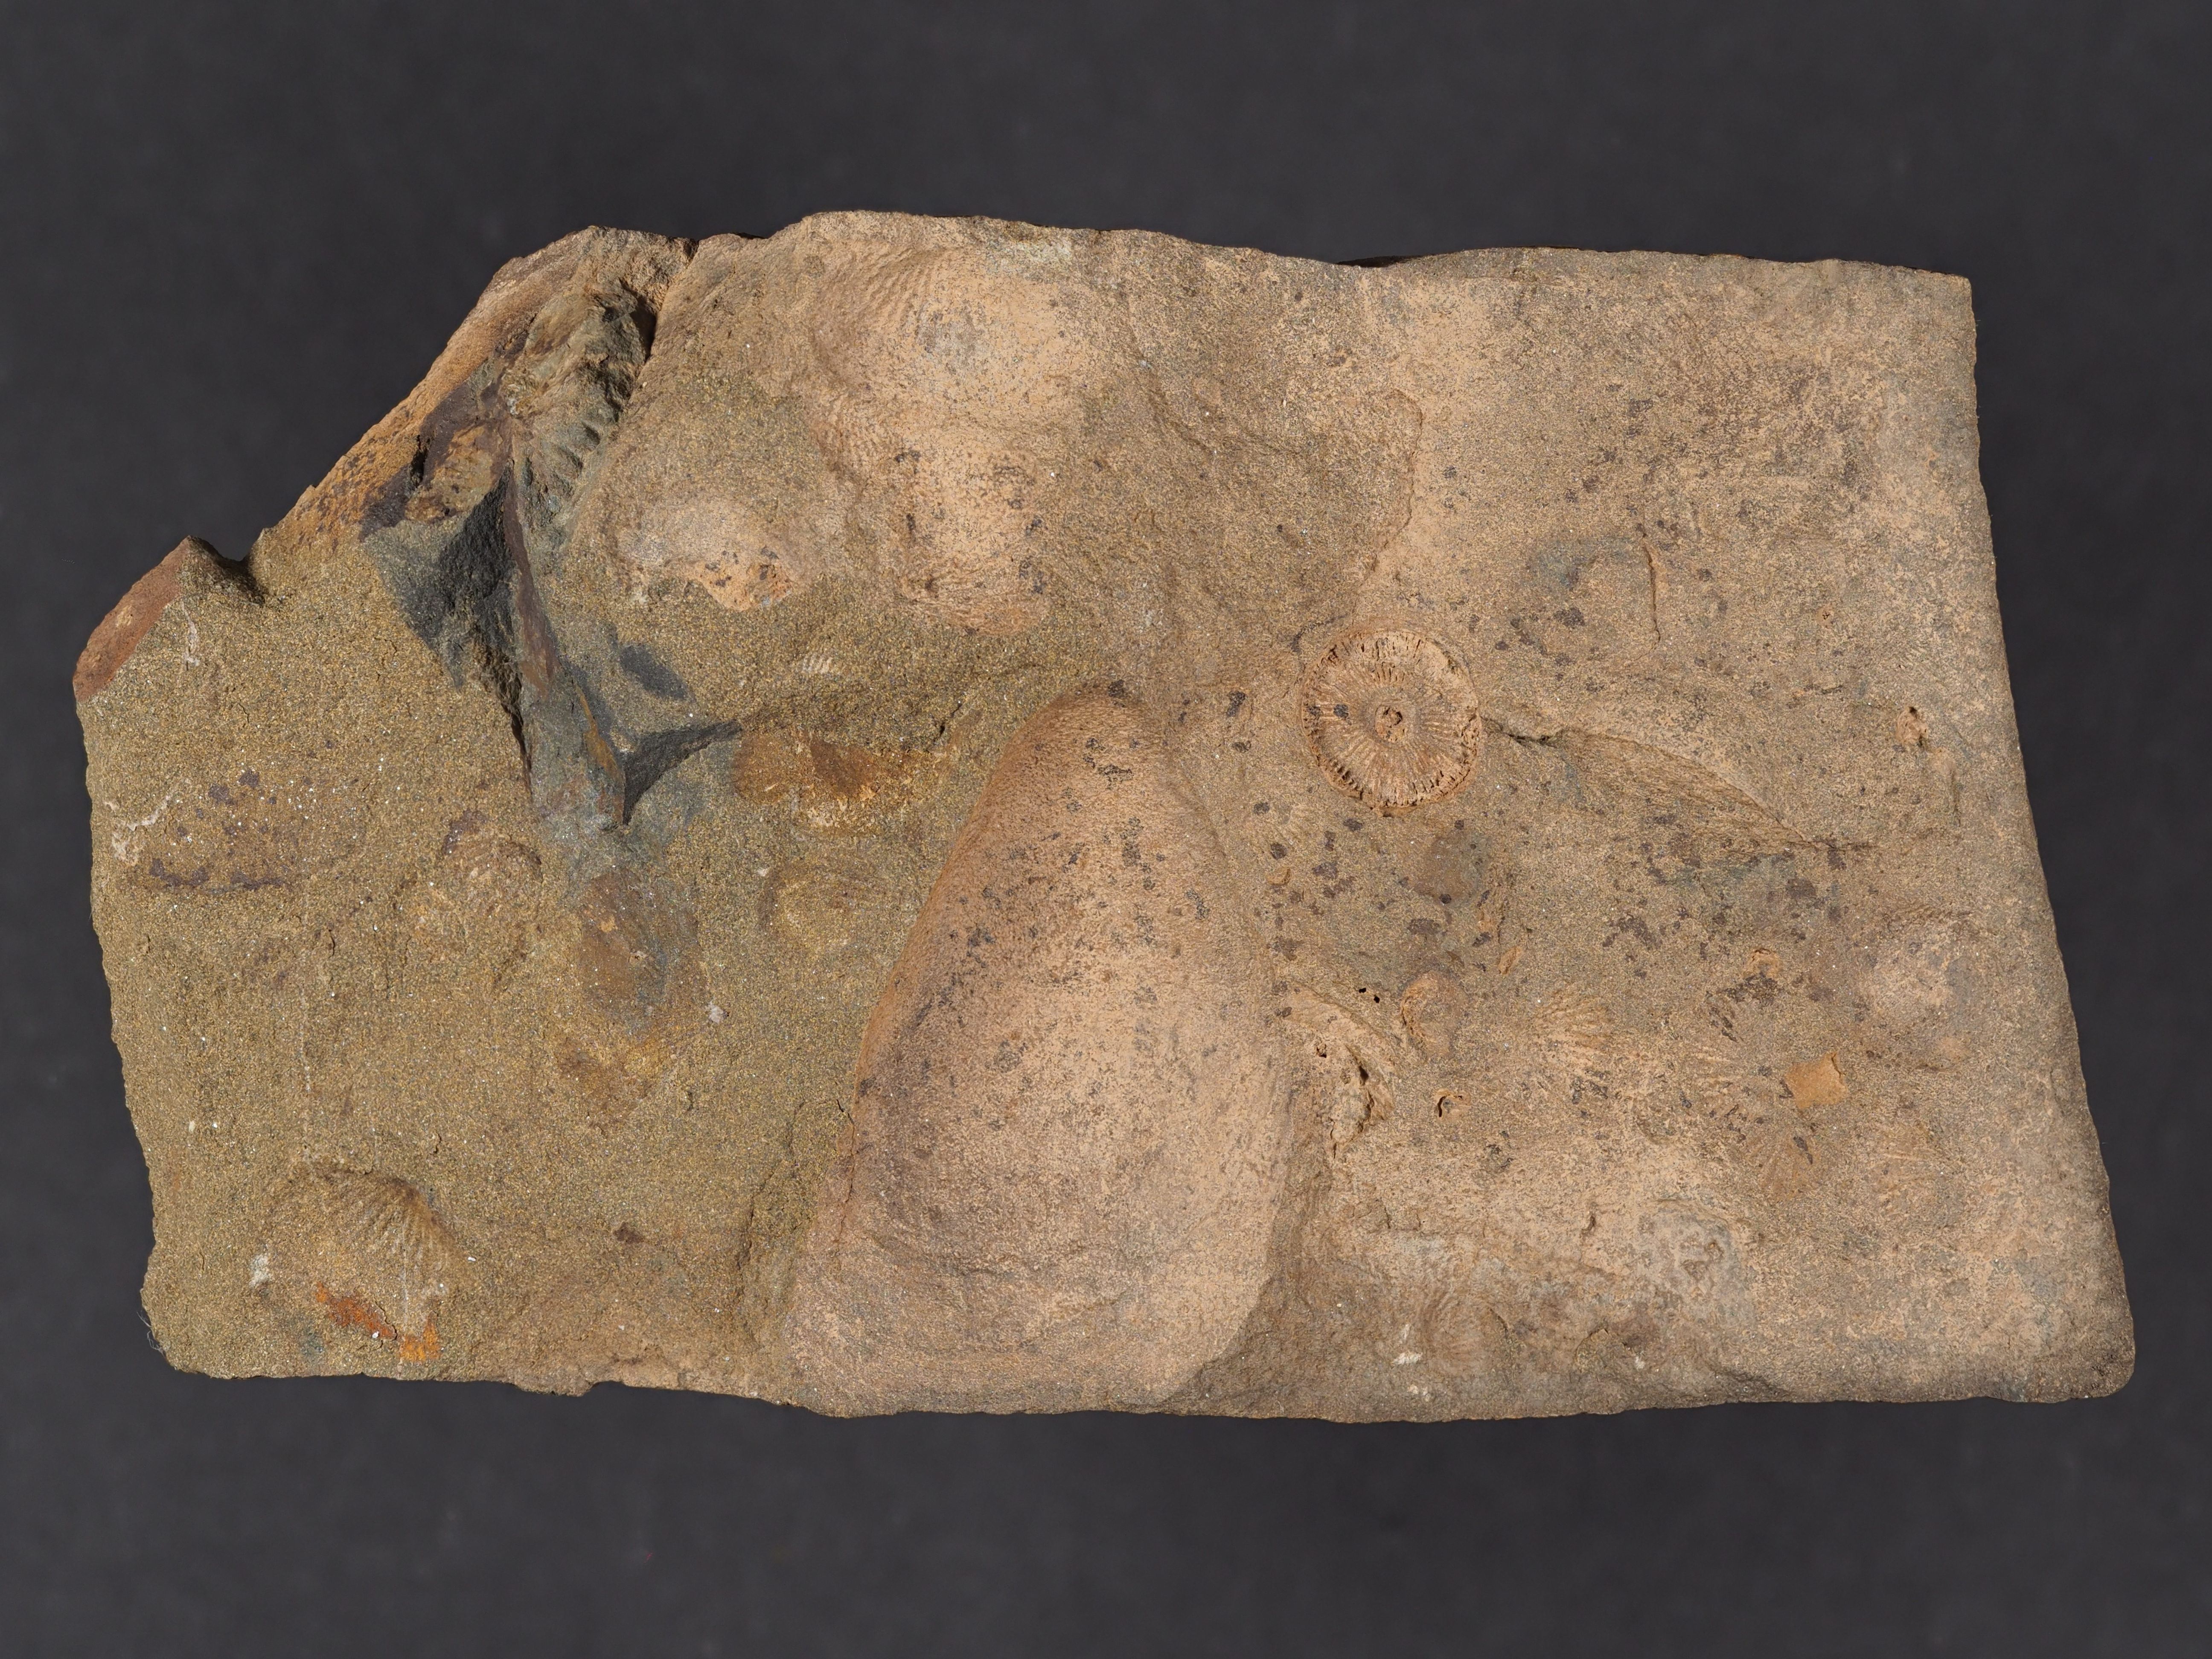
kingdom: Animalia
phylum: Mollusca
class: Bivalvia
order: Ostreida
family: Pterineidae
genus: Leptodesma
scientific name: Leptodesma
